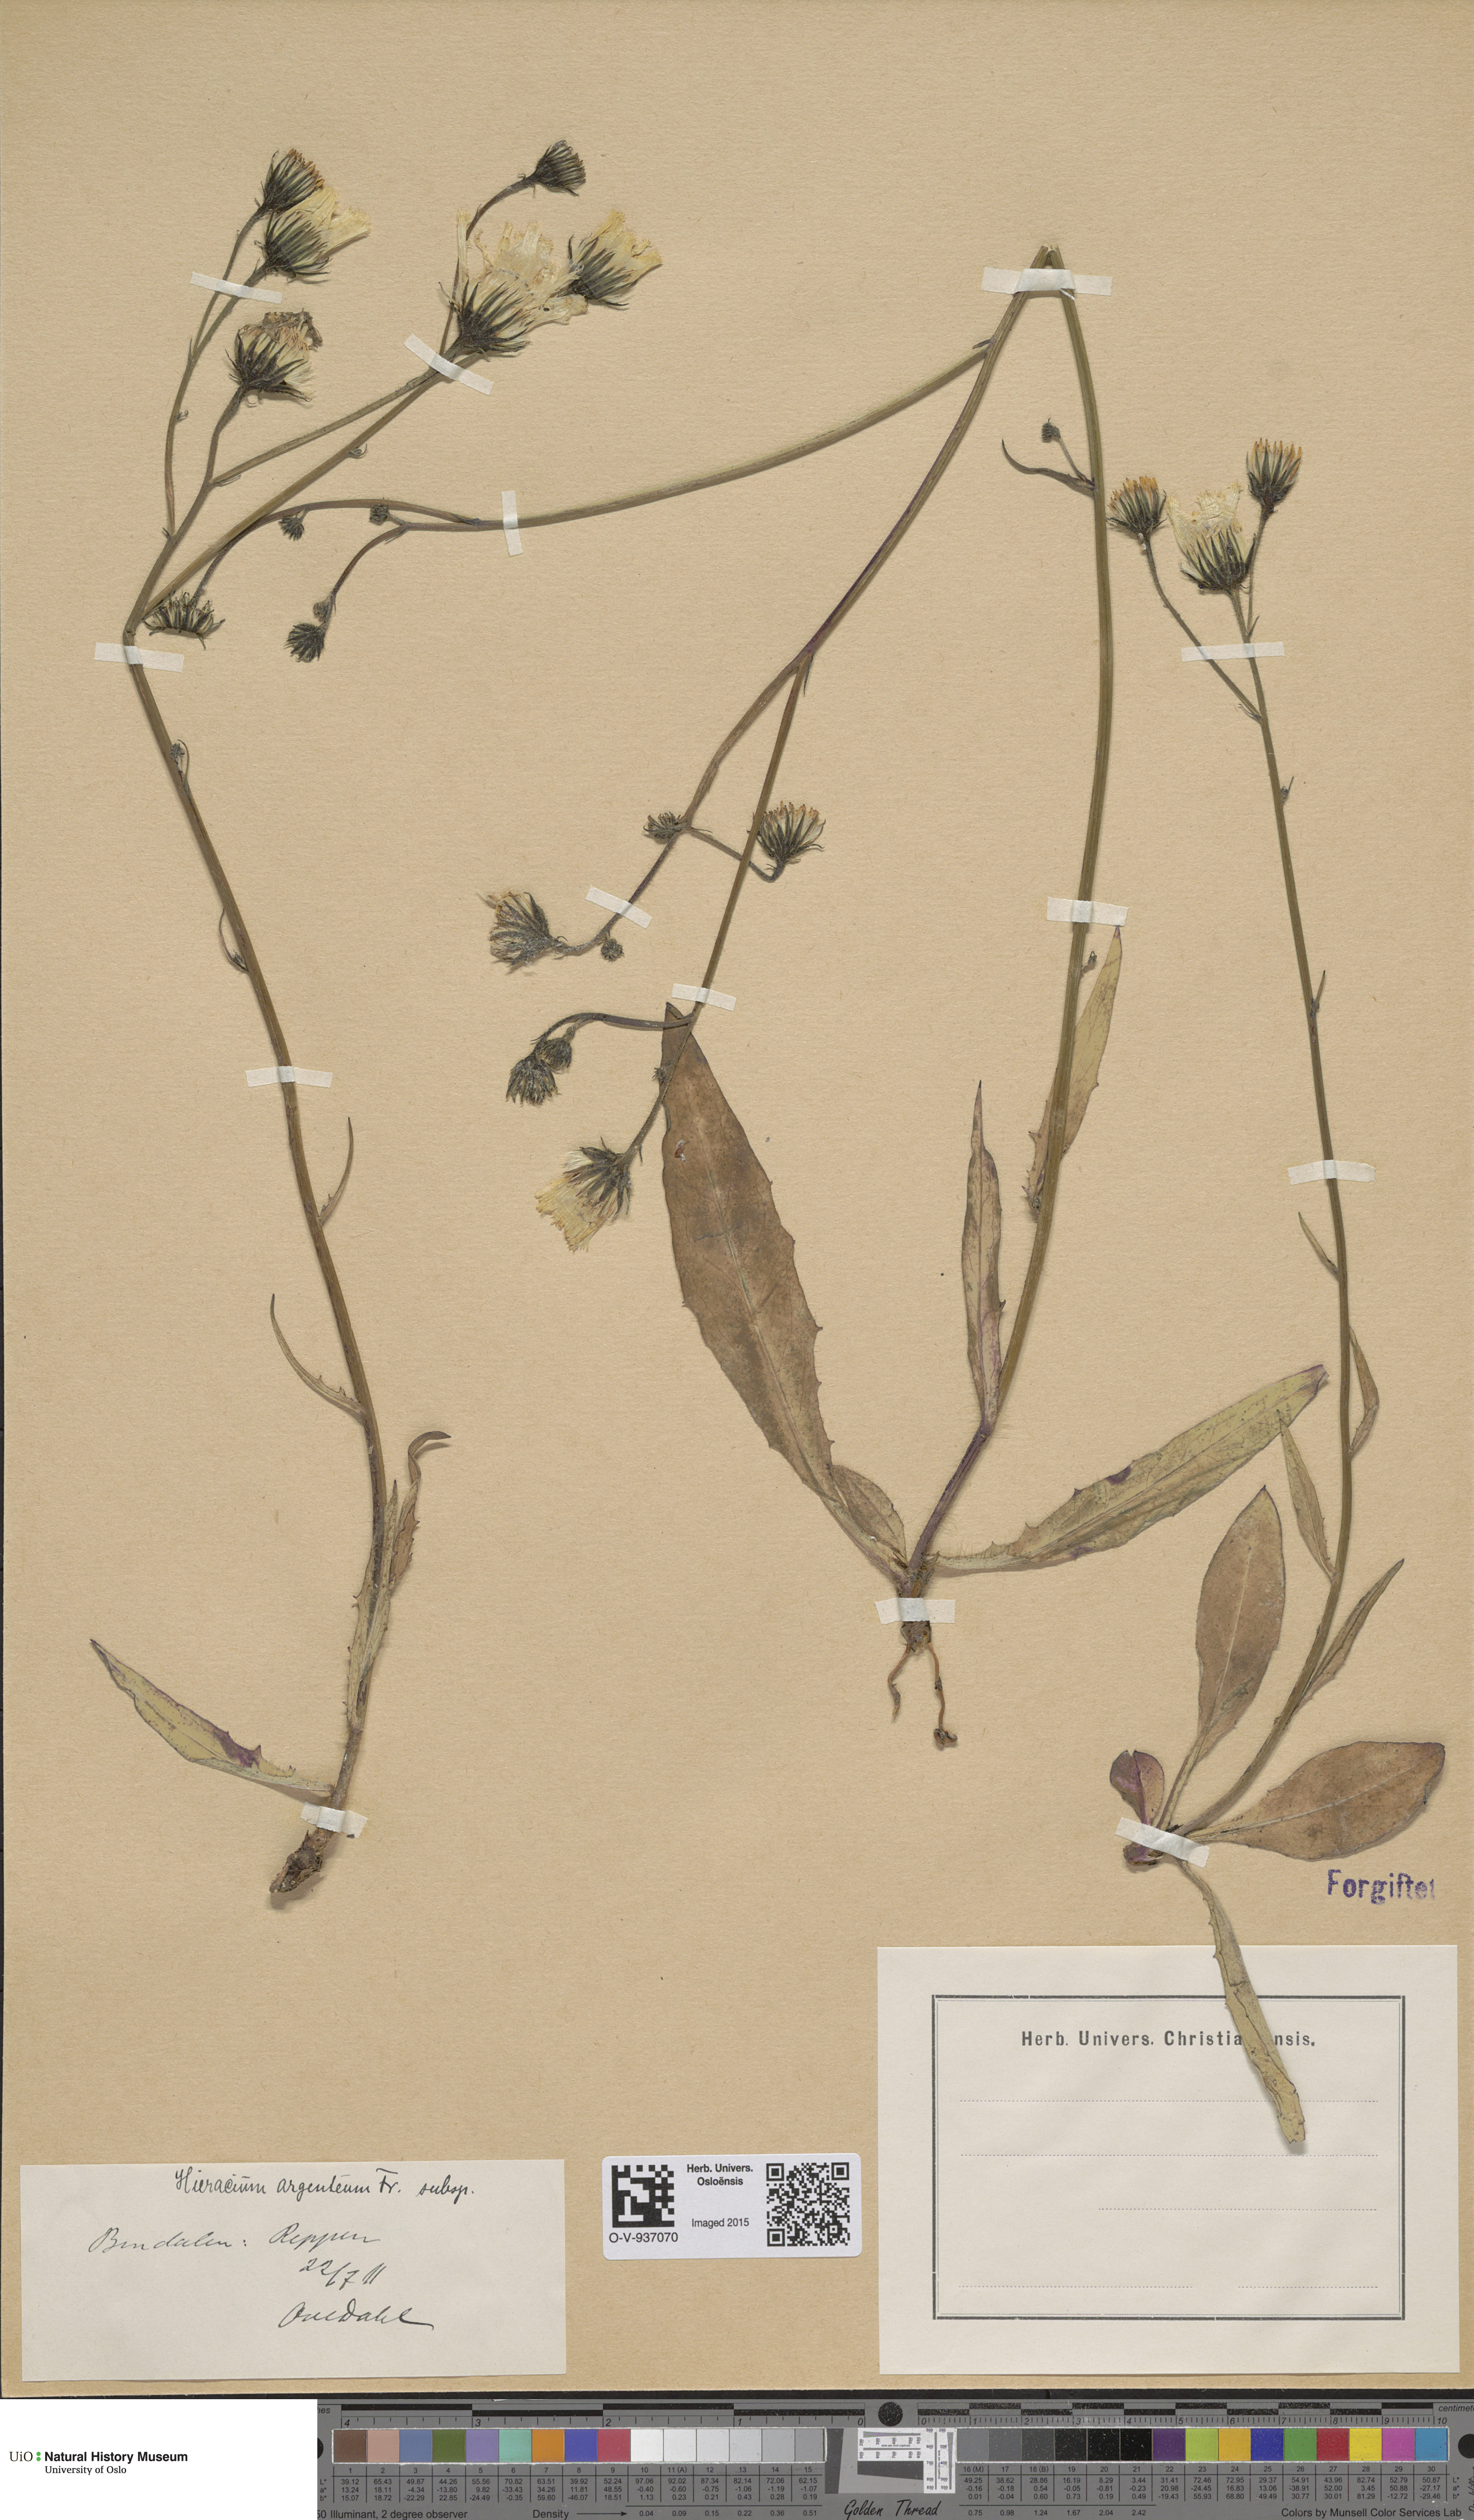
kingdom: Plantae
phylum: Tracheophyta
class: Magnoliopsida
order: Asterales
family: Asteraceae
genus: Hieracium
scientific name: Hieracium argenteum
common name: Silver hawkweed
